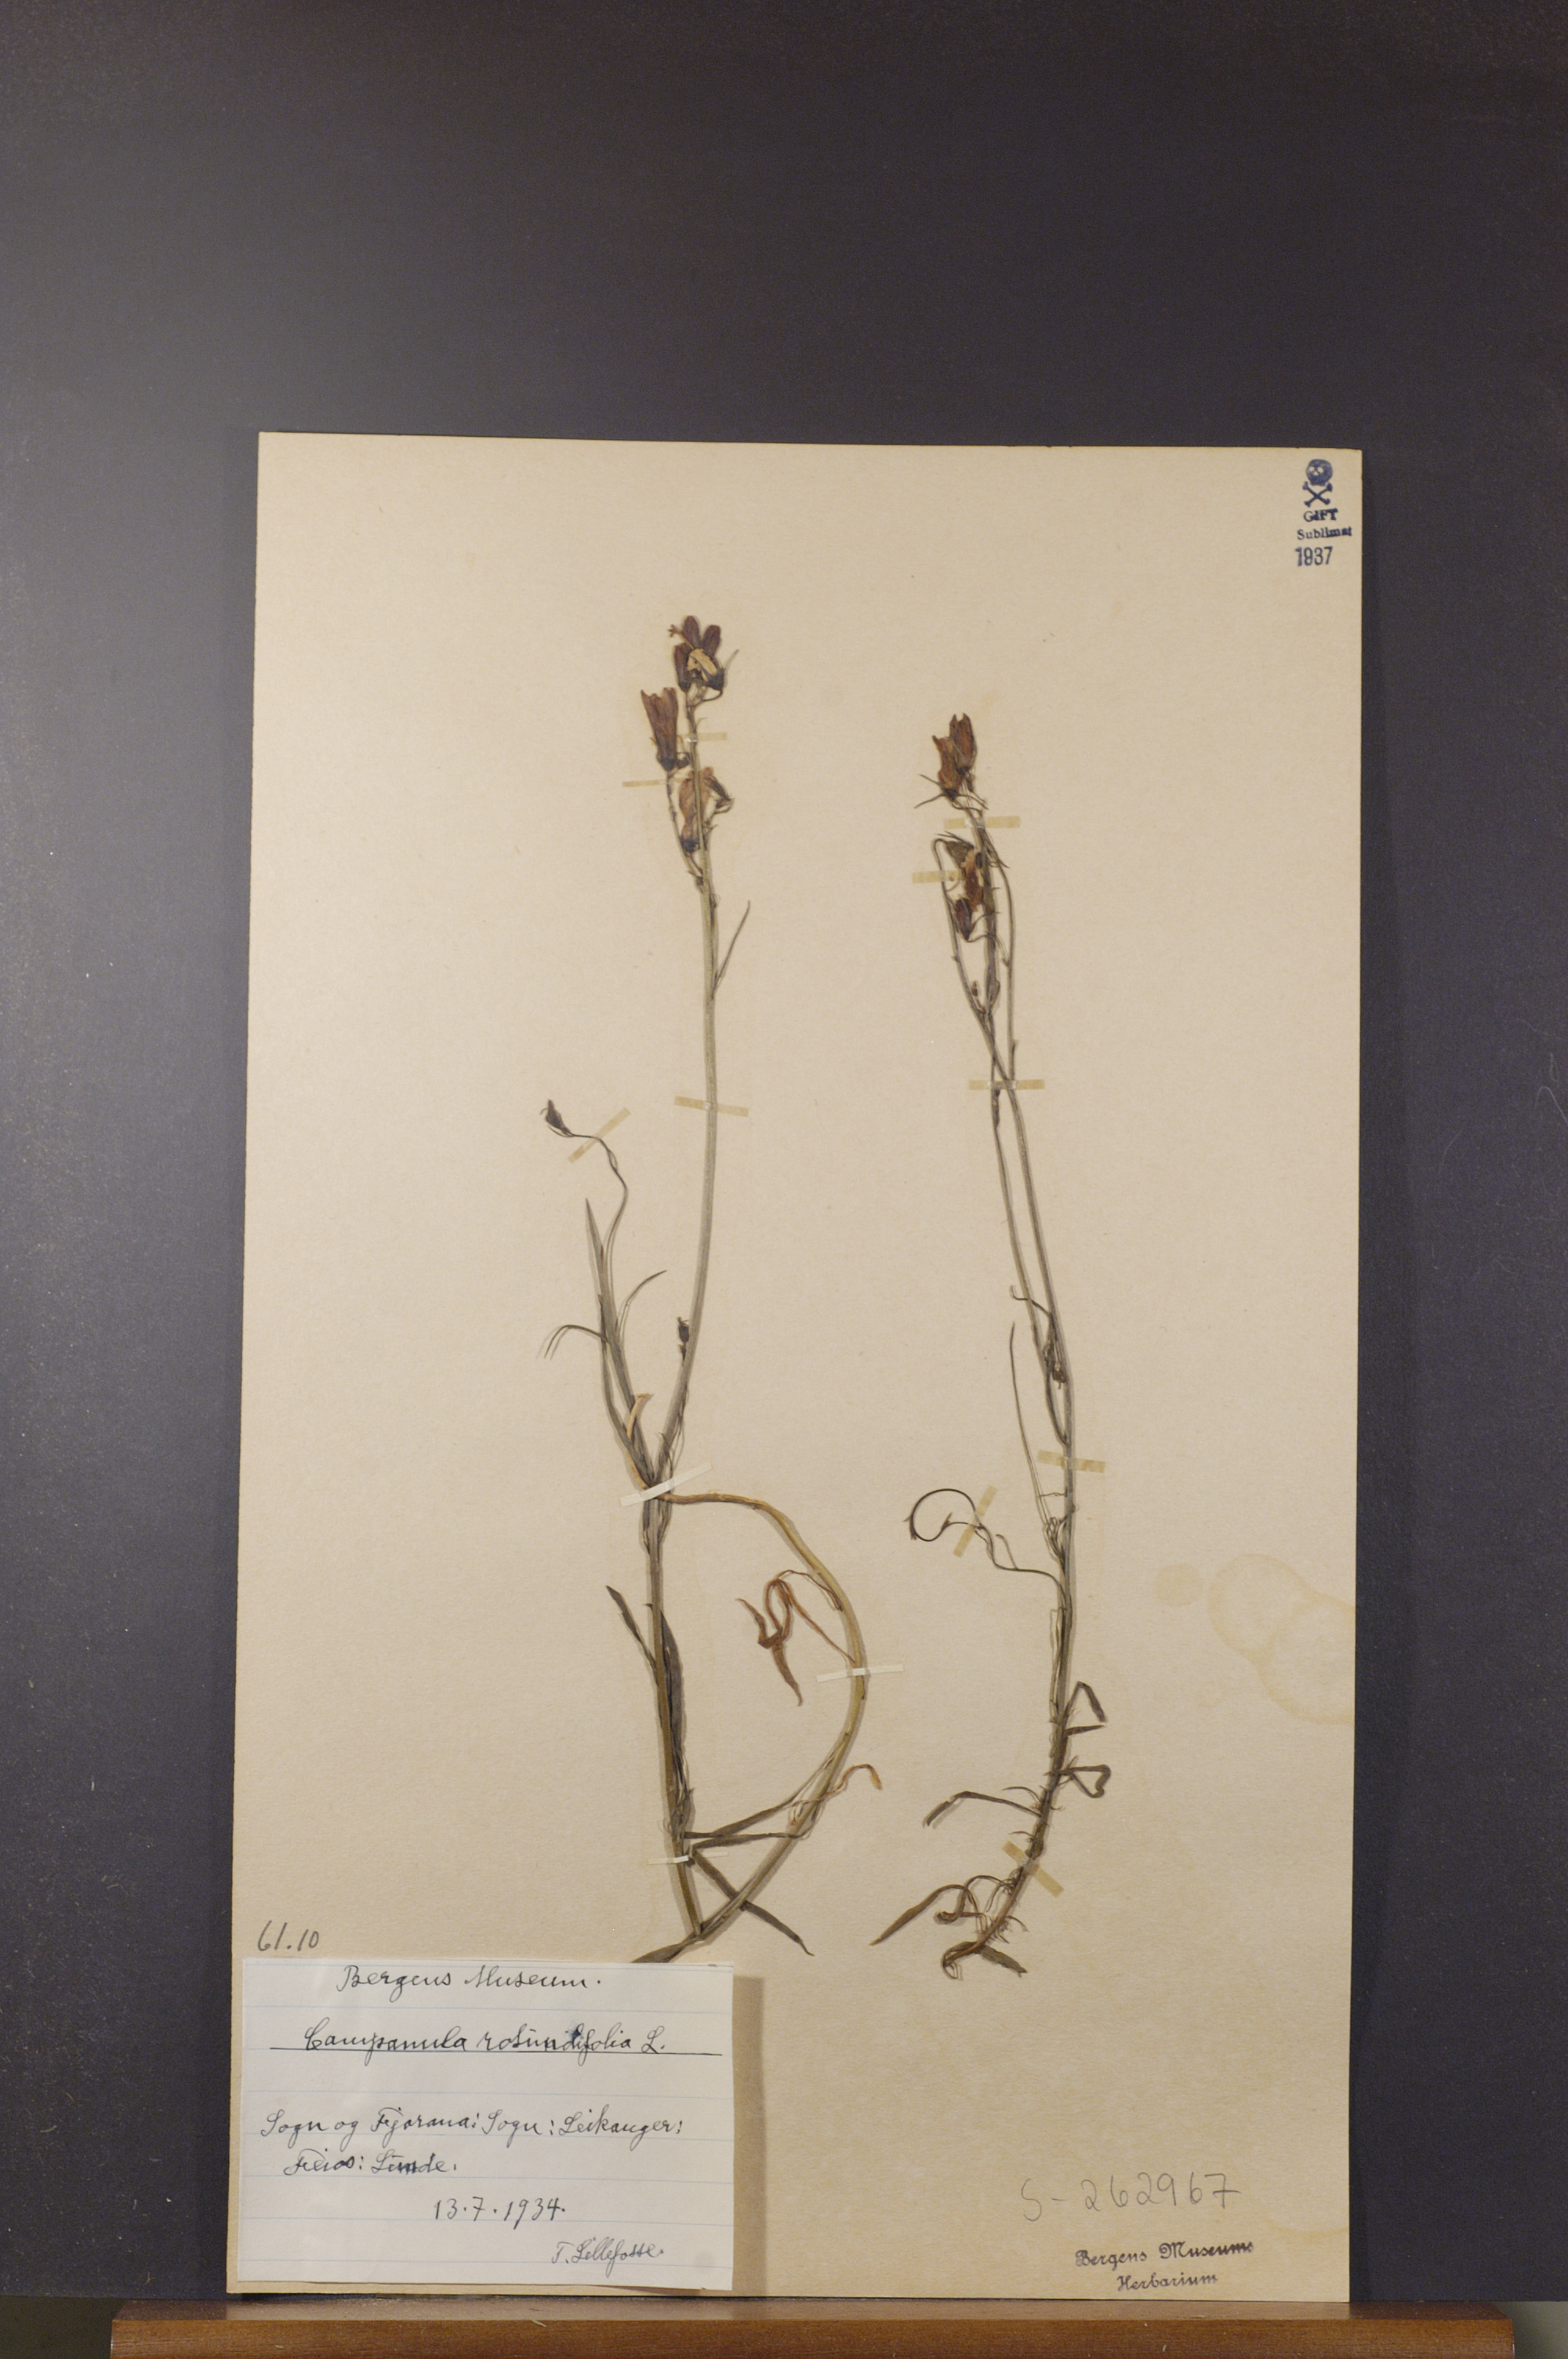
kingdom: Plantae
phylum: Tracheophyta
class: Magnoliopsida
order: Asterales
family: Campanulaceae
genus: Campanula
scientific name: Campanula rotundifolia
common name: Harebell
